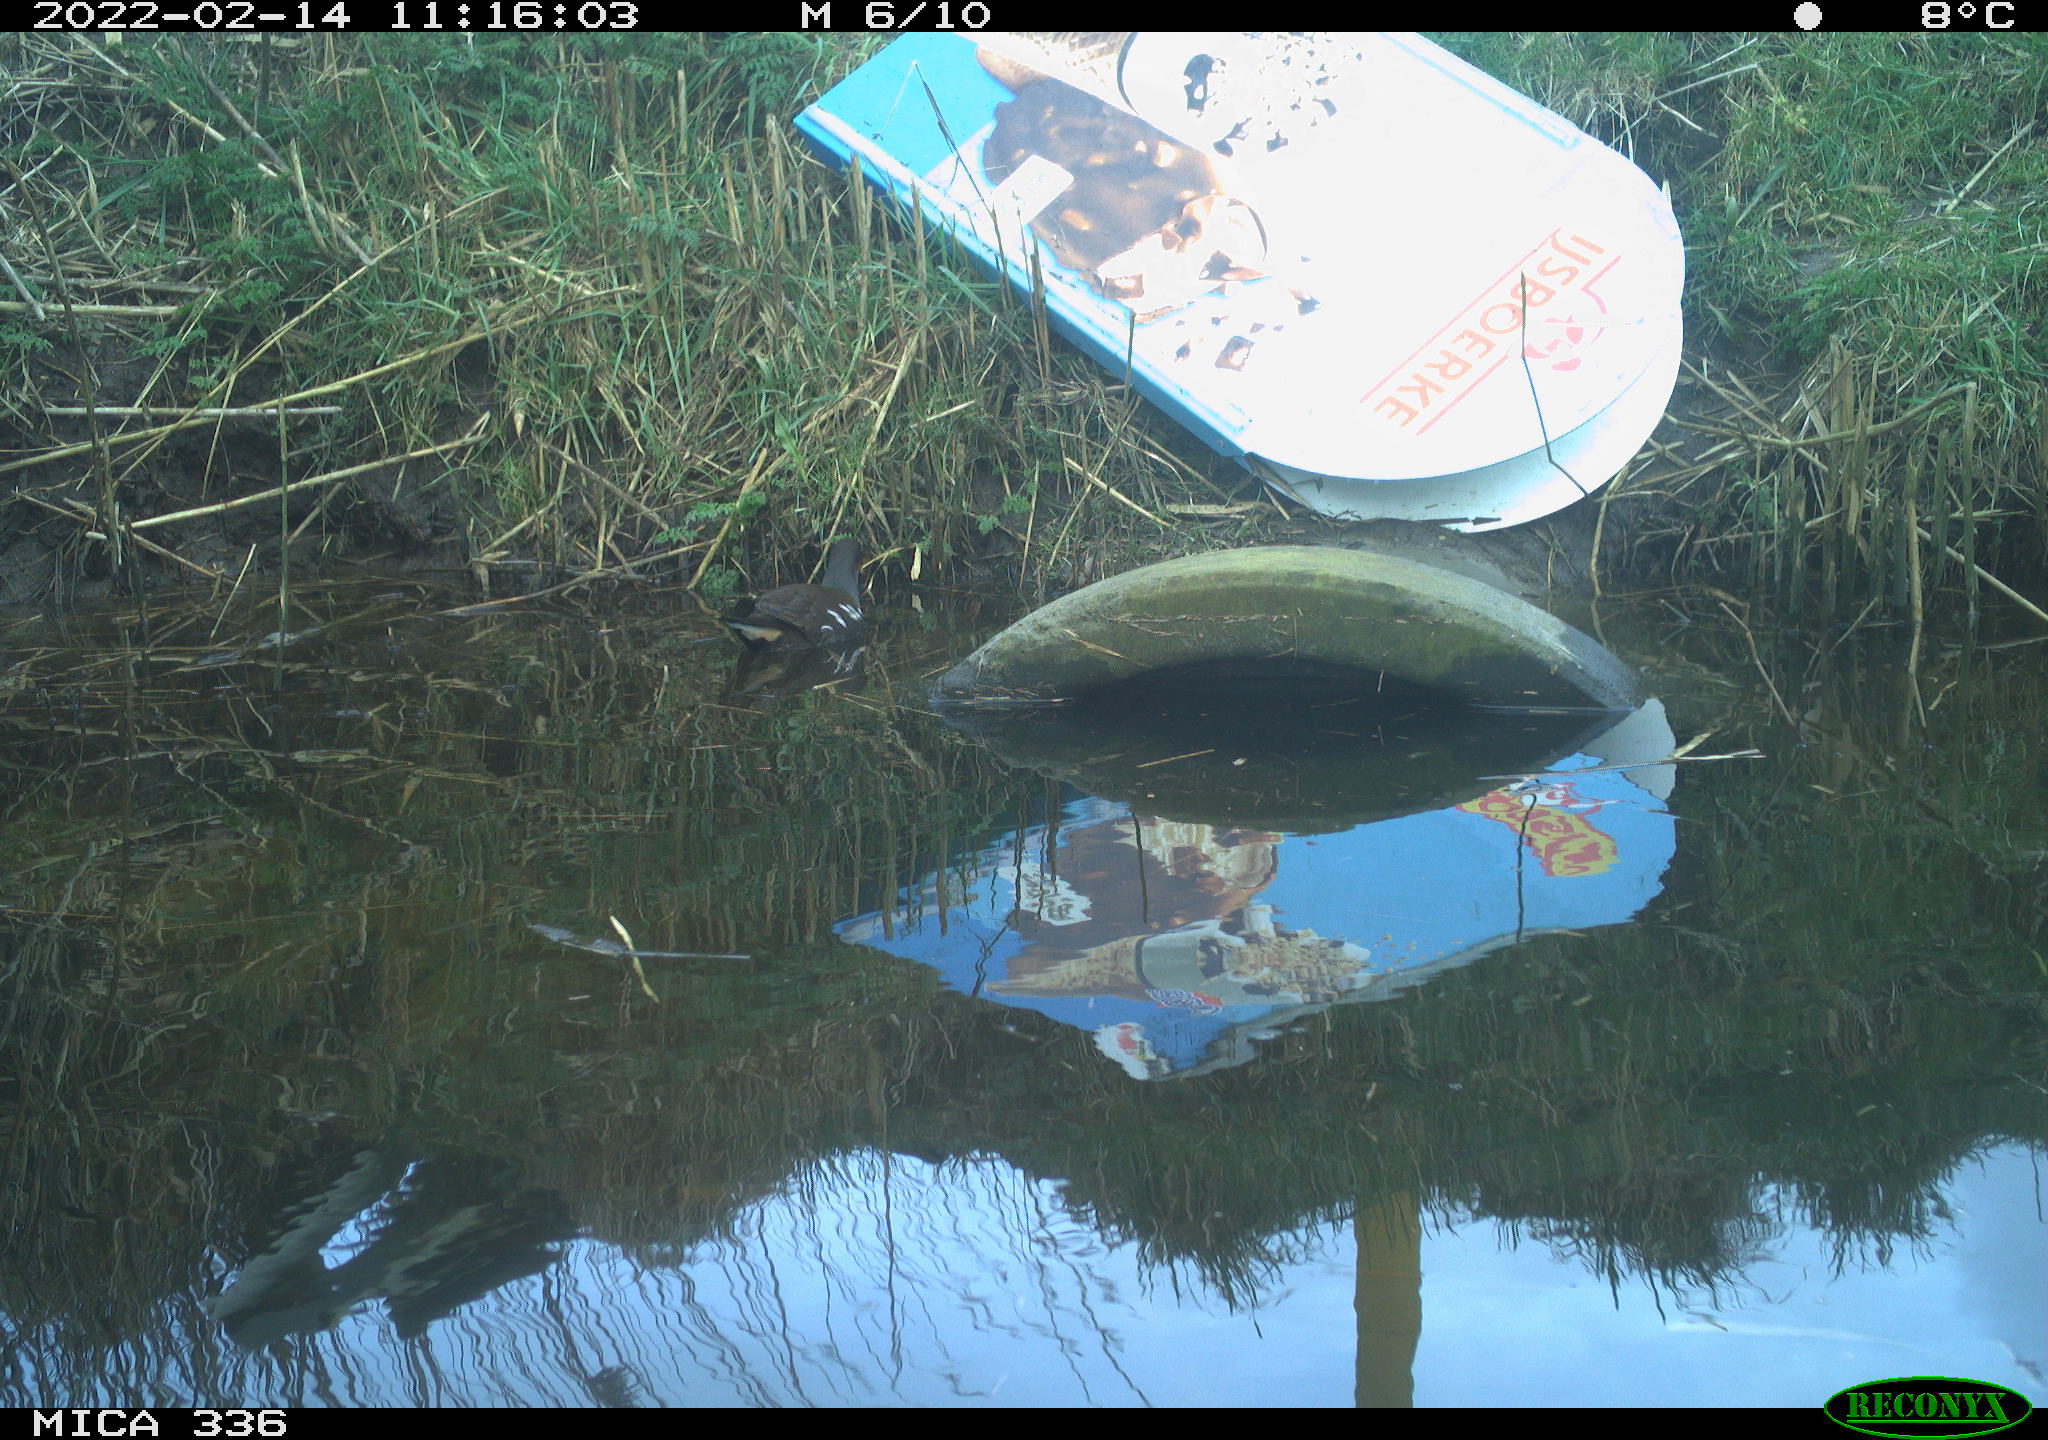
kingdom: Animalia
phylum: Chordata
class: Aves
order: Gruiformes
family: Rallidae
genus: Gallinula
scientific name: Gallinula chloropus
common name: Common moorhen
